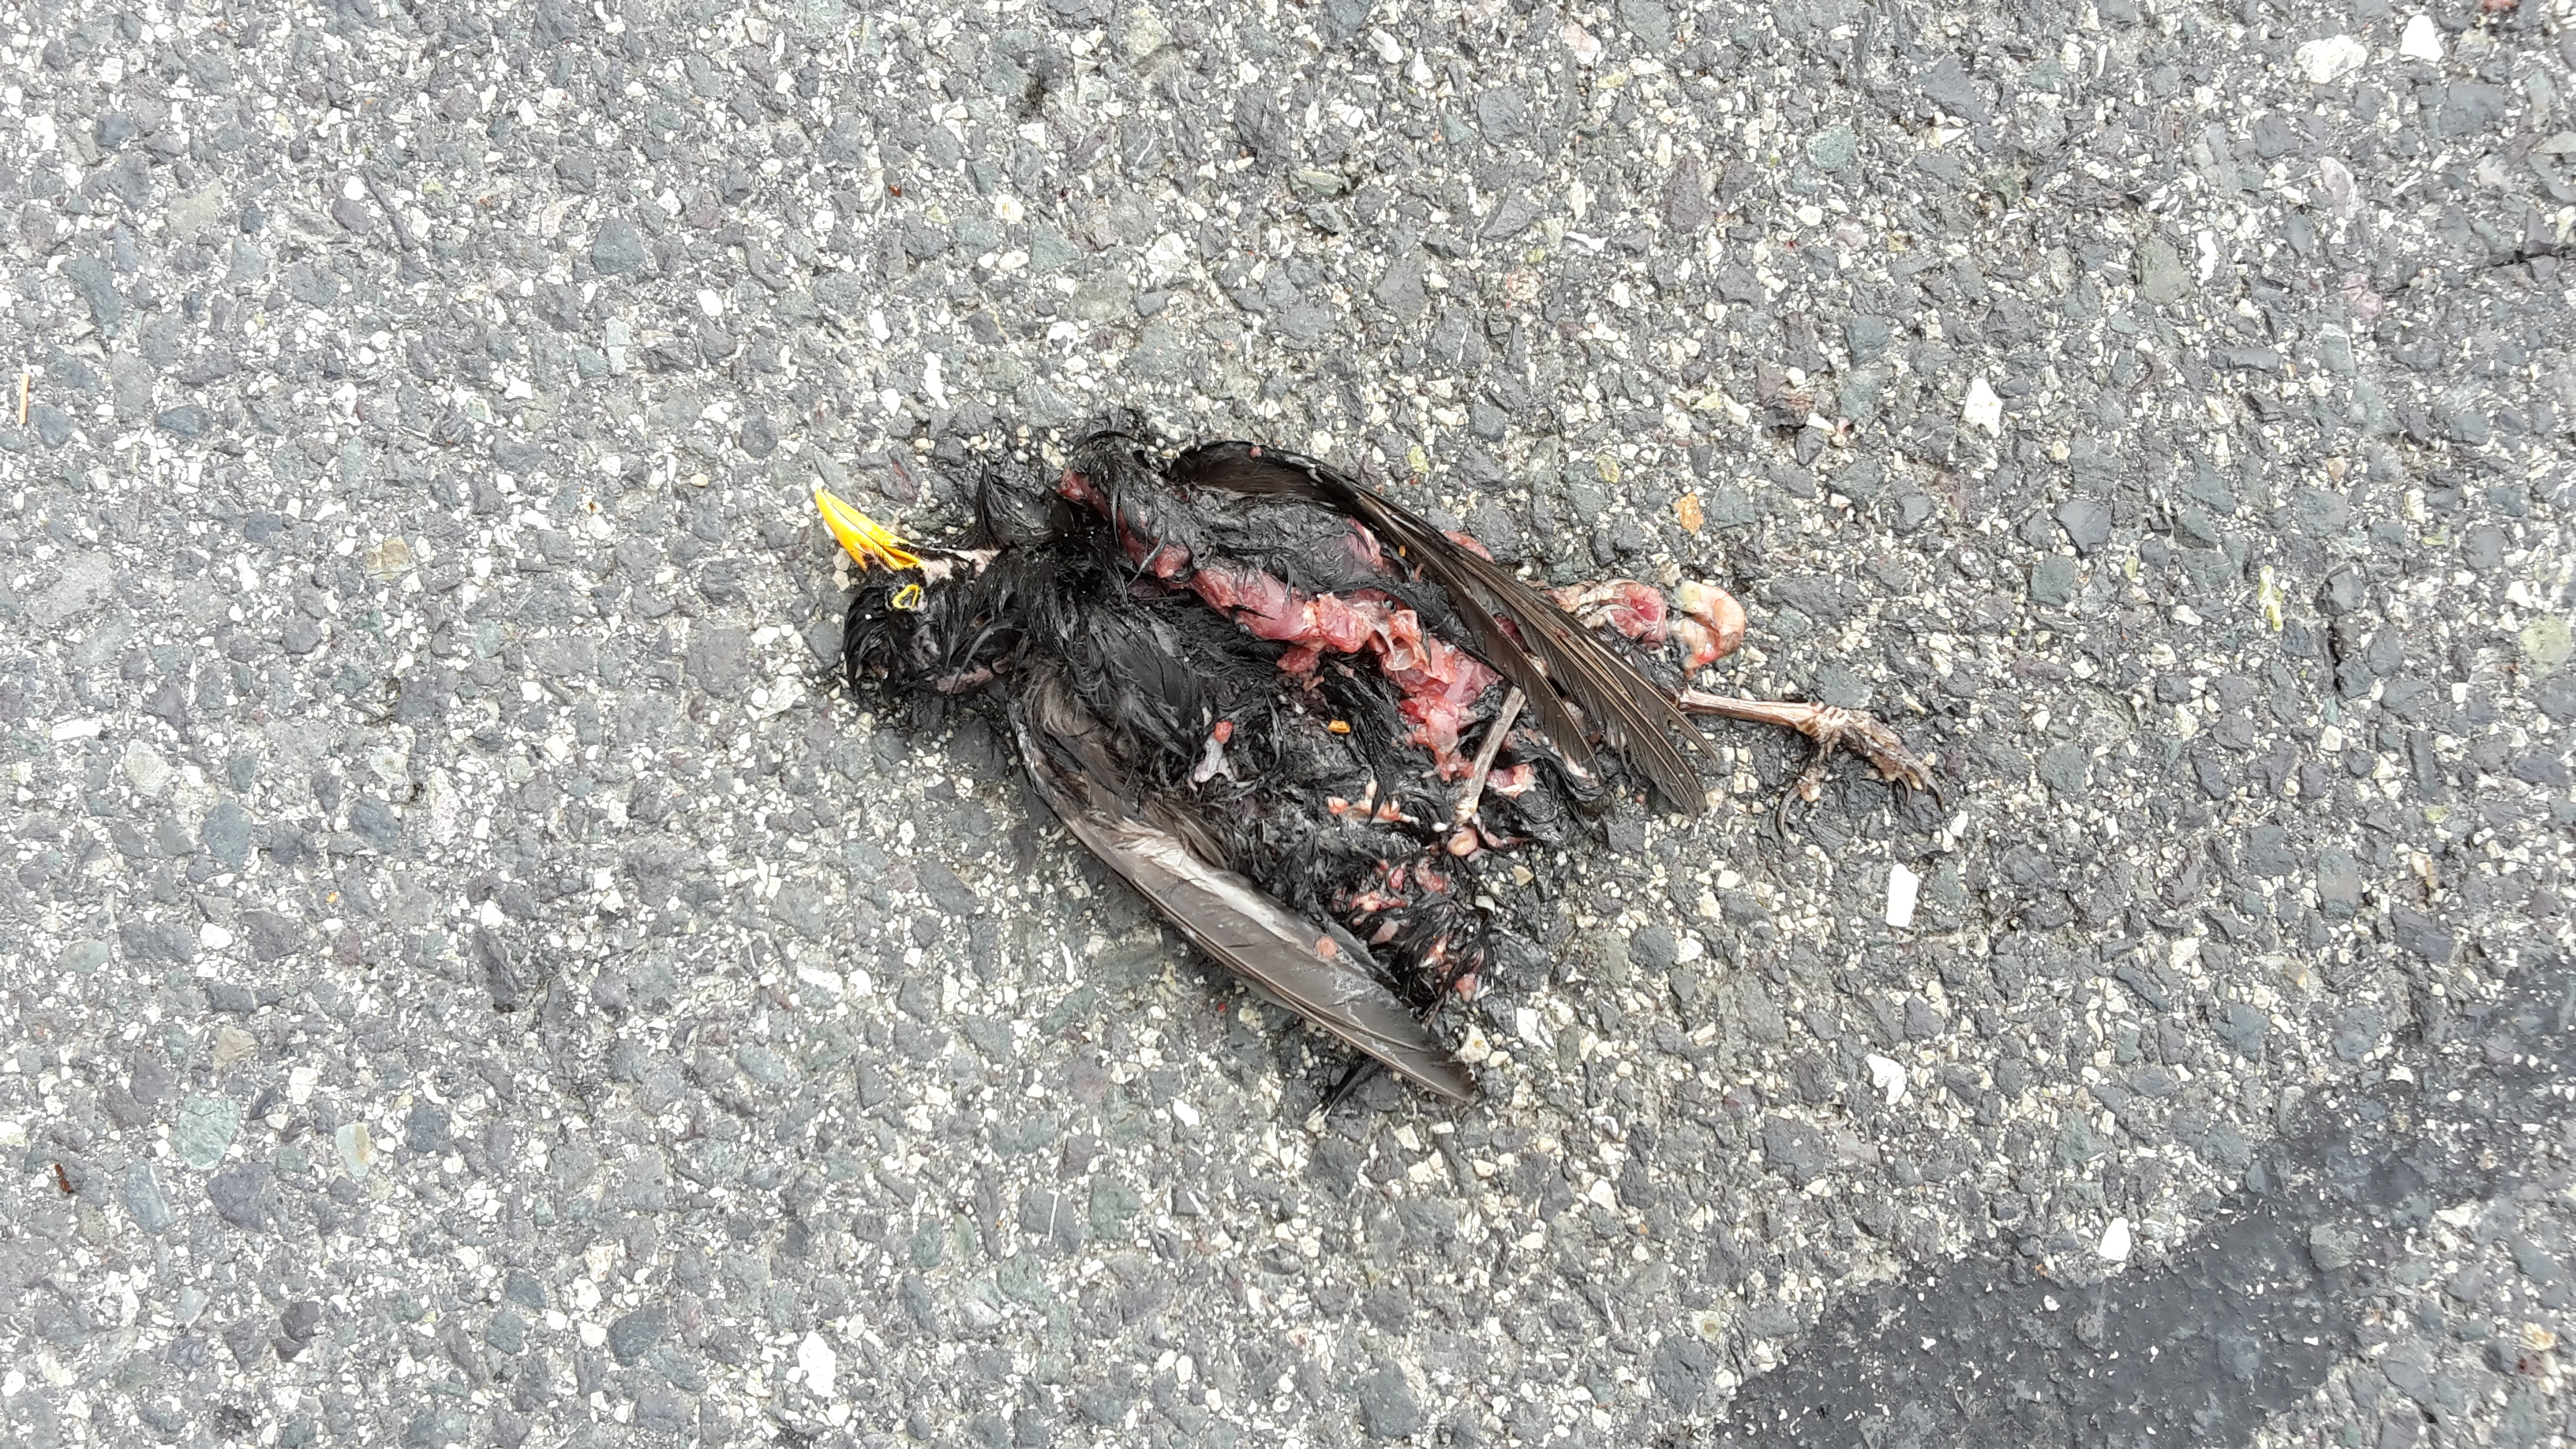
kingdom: Animalia
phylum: Chordata
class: Aves
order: Passeriformes
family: Turdidae
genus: Turdus
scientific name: Turdus merula
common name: Common blackbird
